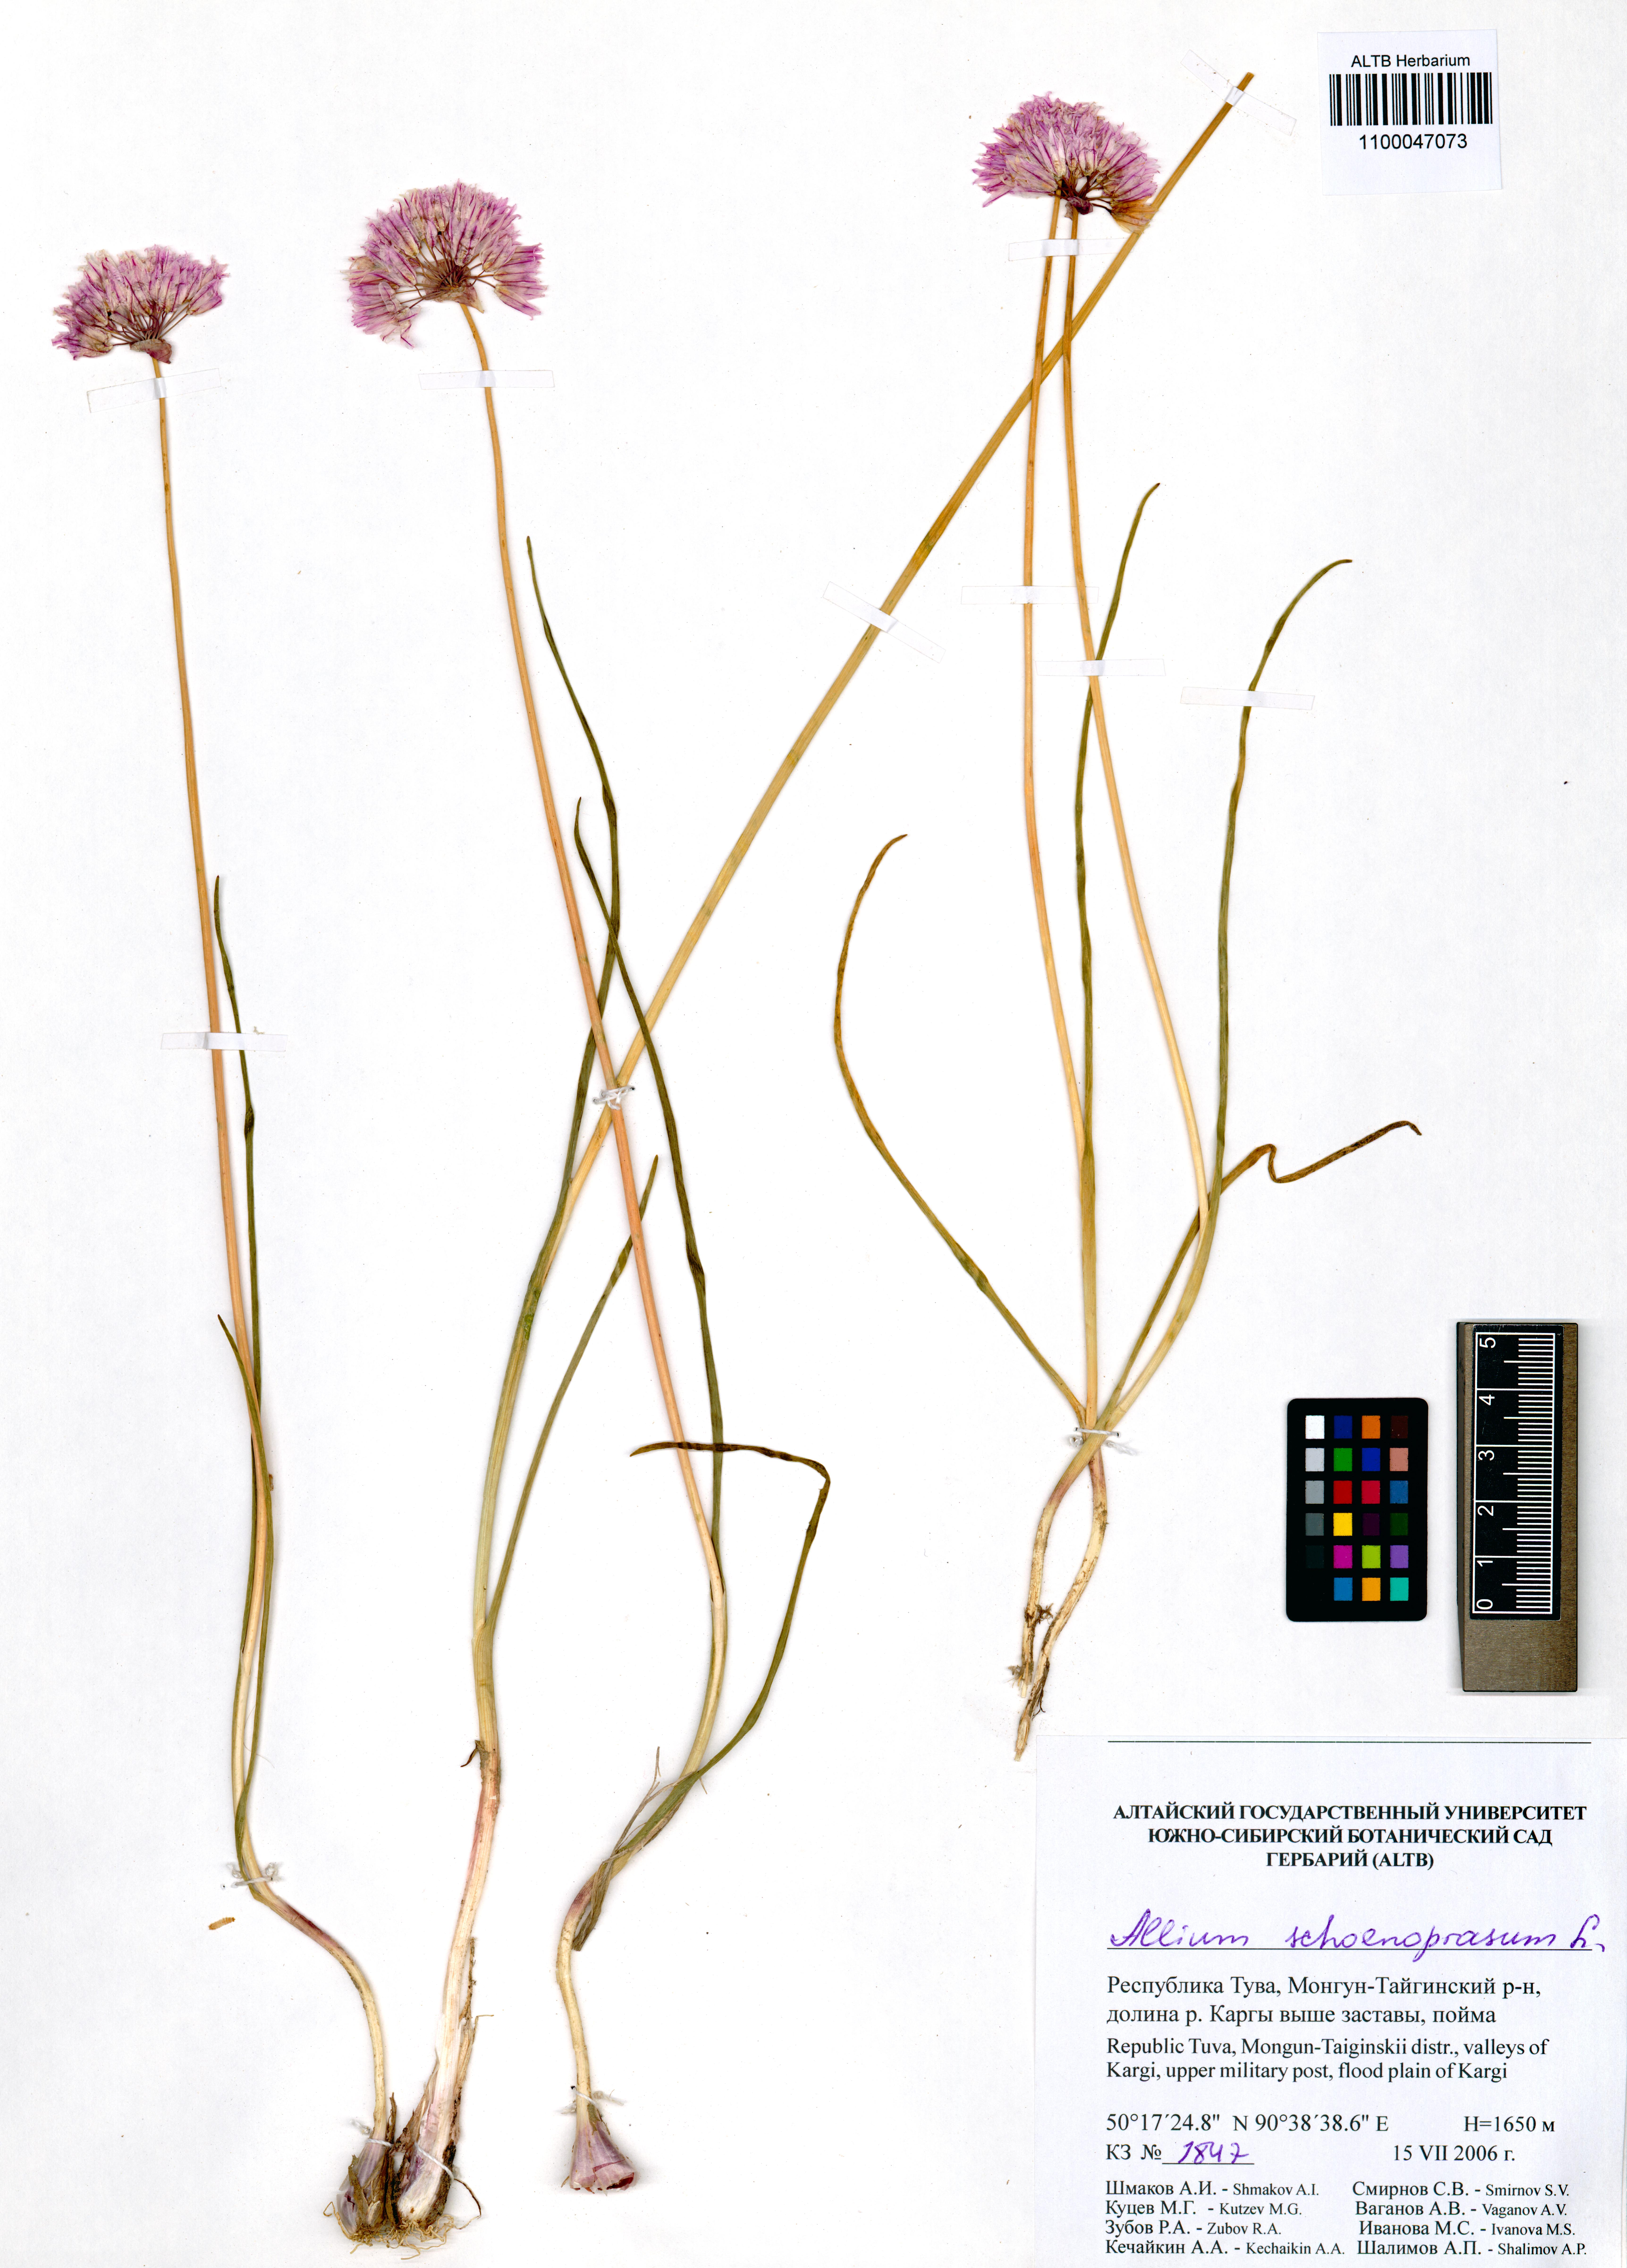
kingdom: Plantae
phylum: Tracheophyta
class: Liliopsida
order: Asparagales
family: Amaryllidaceae
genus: Allium
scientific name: Allium schoenoprasum
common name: Chives
